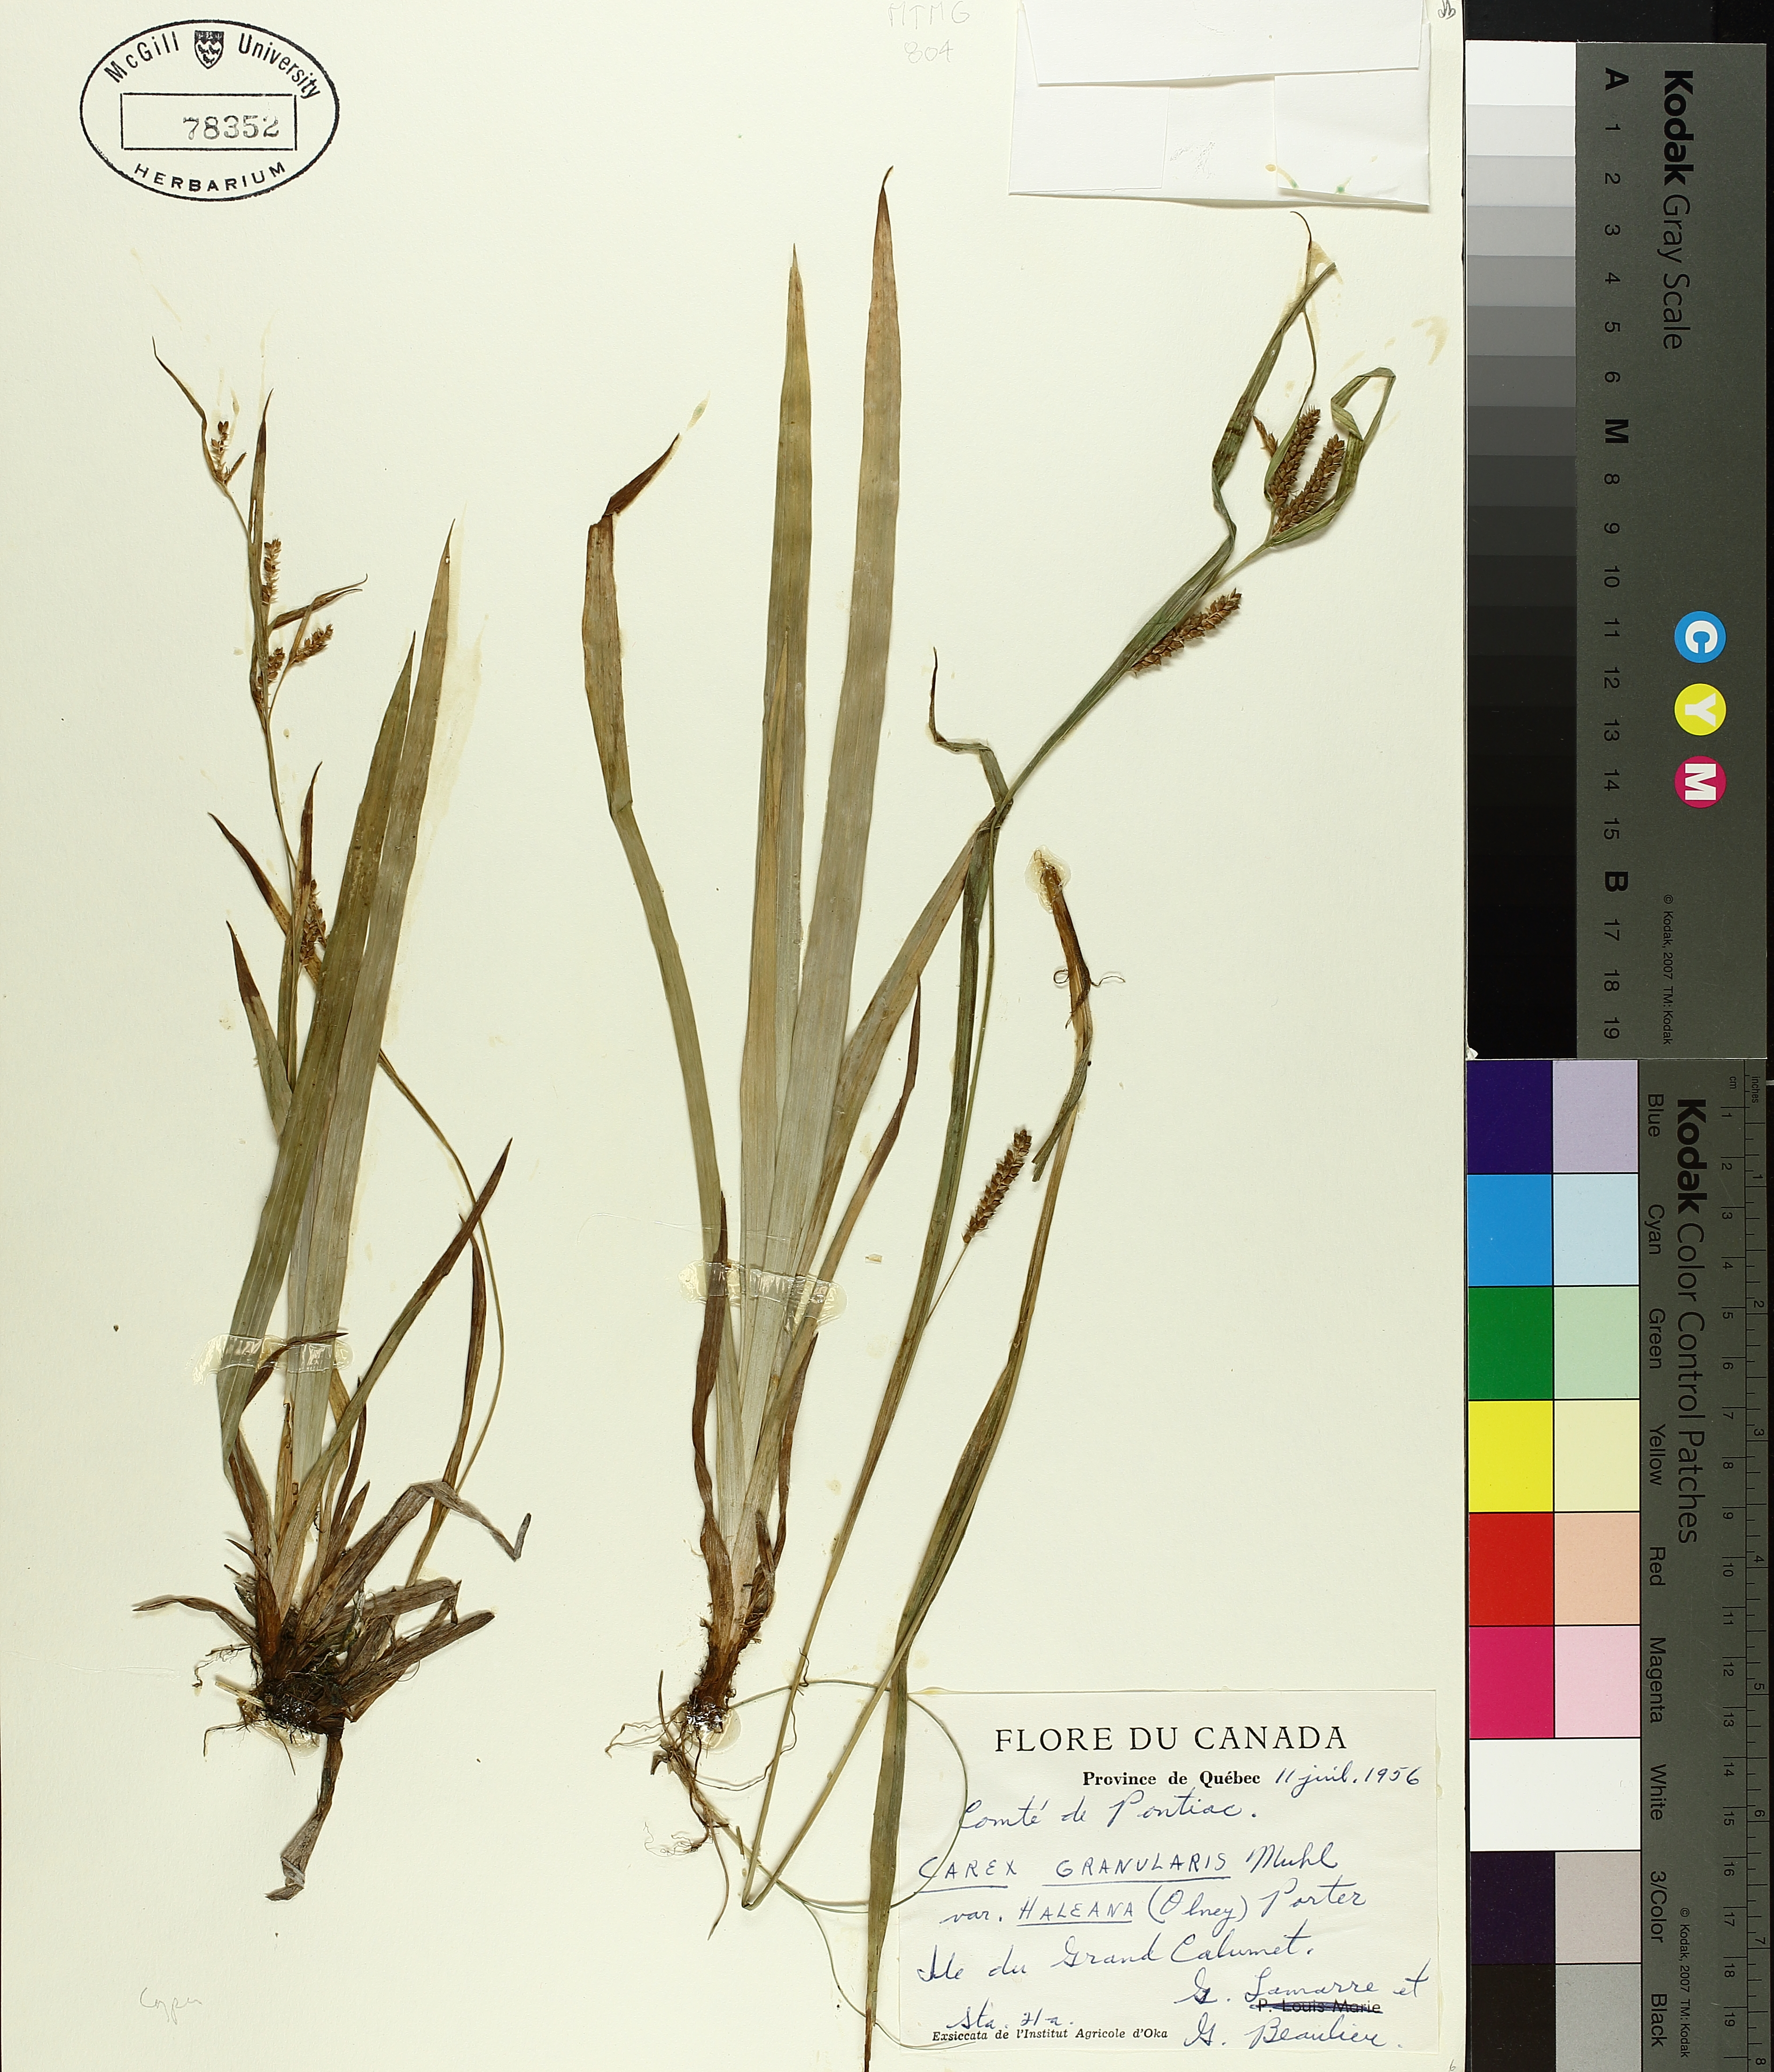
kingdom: Plantae
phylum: Tracheophyta
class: Liliopsida
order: Poales
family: Cyperaceae
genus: Carex
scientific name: Carex granularis
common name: Granular sedge
